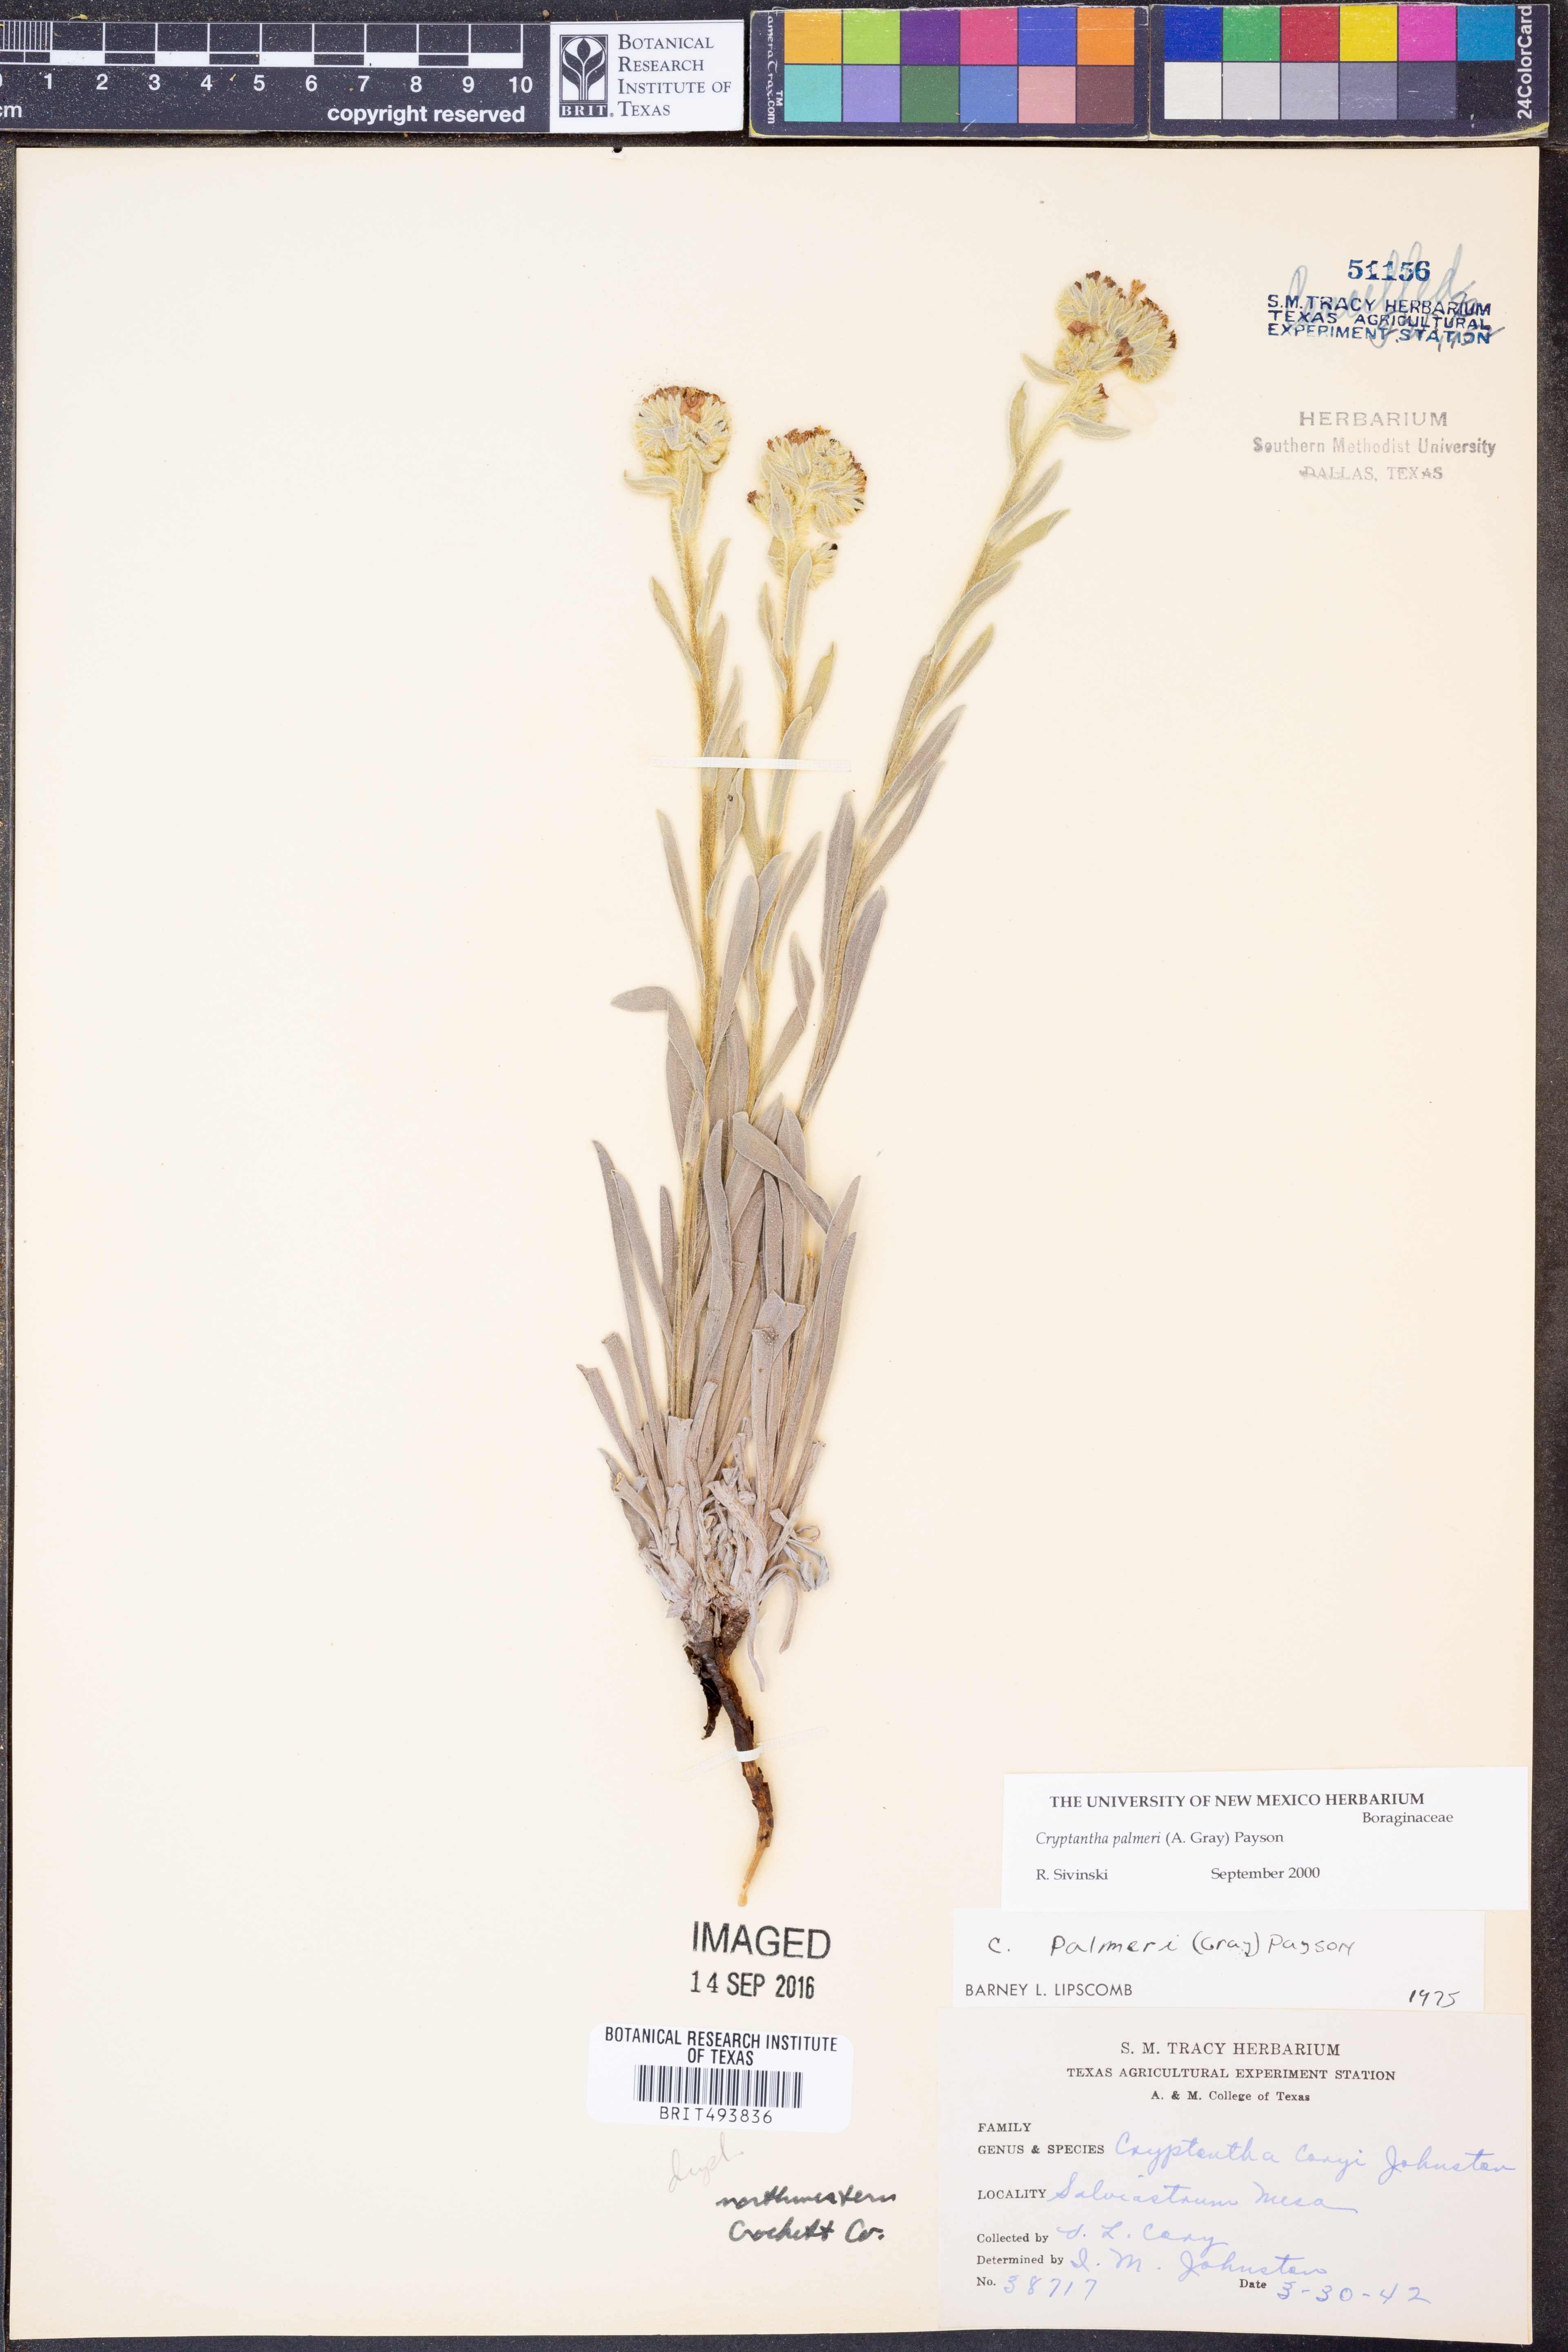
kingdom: Plantae
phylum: Tracheophyta
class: Magnoliopsida
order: Boraginales
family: Boraginaceae
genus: Oreocarya
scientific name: Oreocarya palmeri
